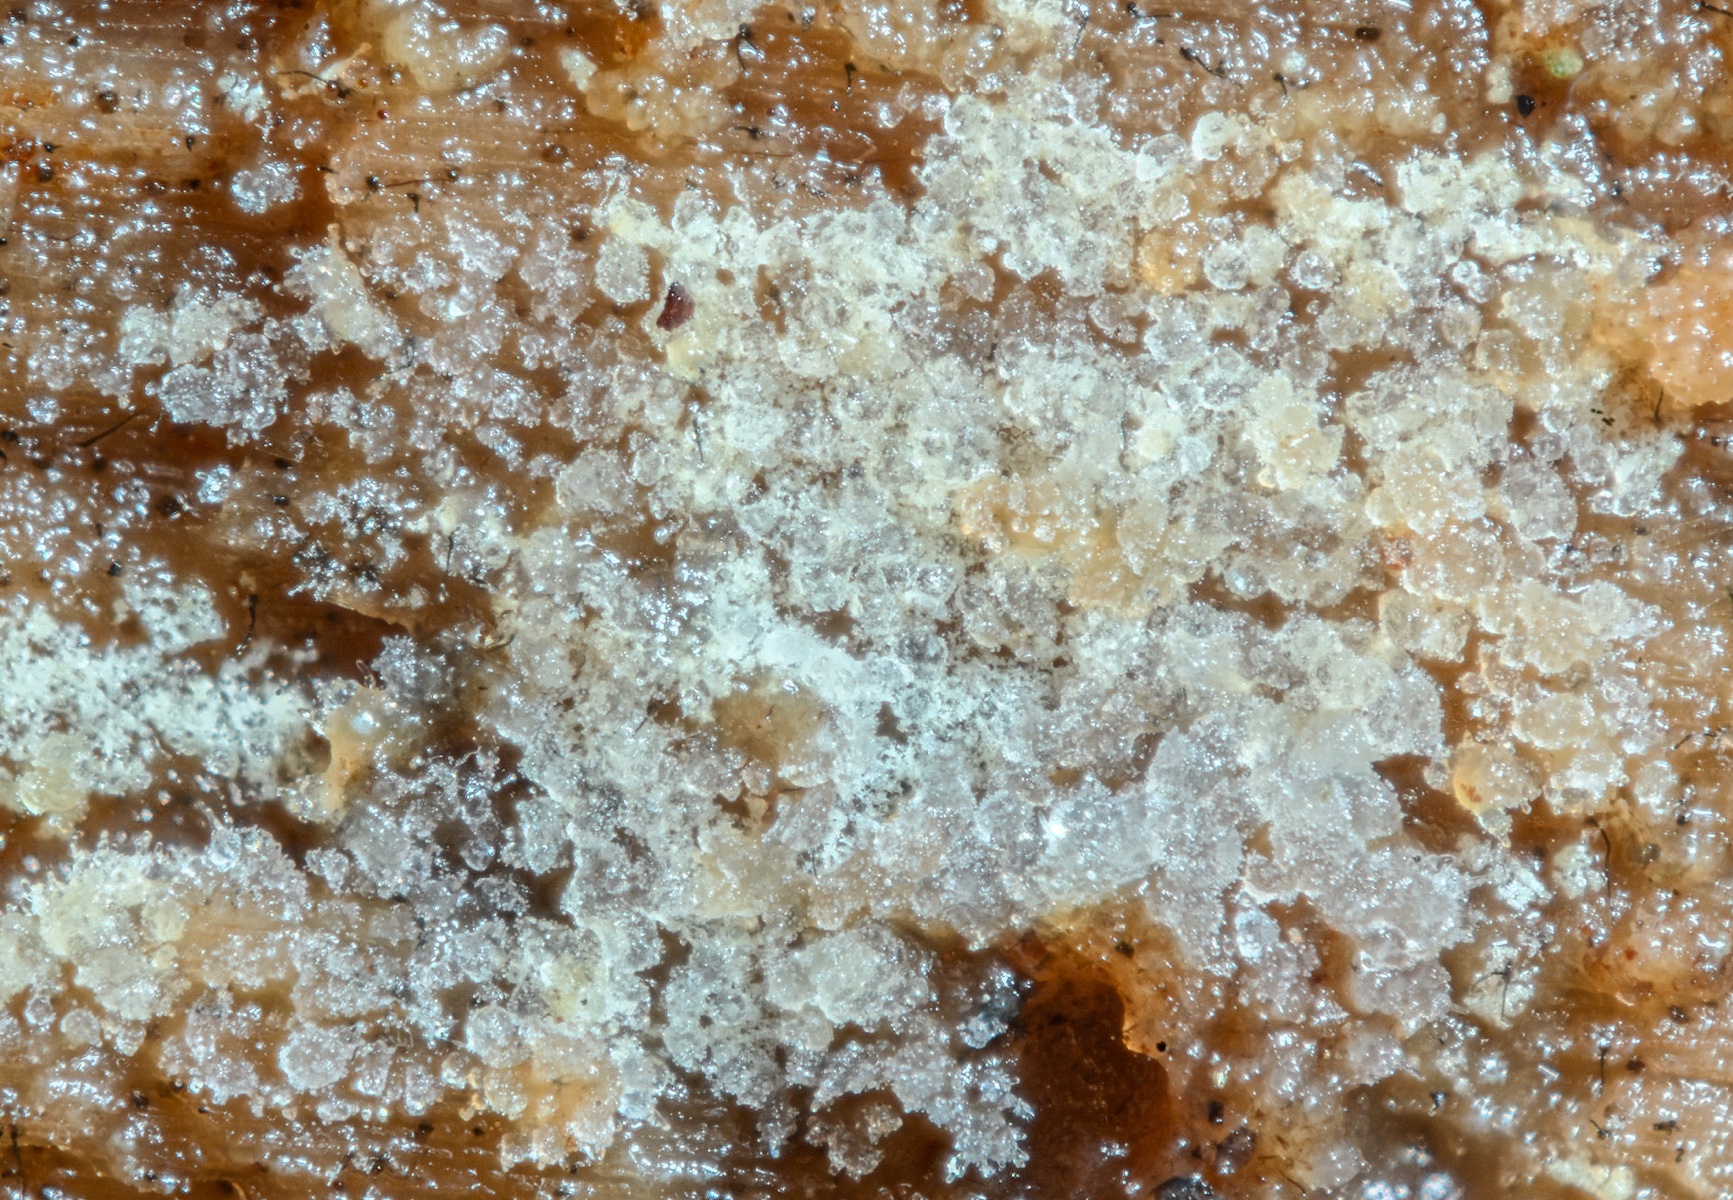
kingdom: Fungi
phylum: Basidiomycota
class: Agaricomycetes
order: Auriculariales
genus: Mycostilla
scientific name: Mycostilla vermiformis
